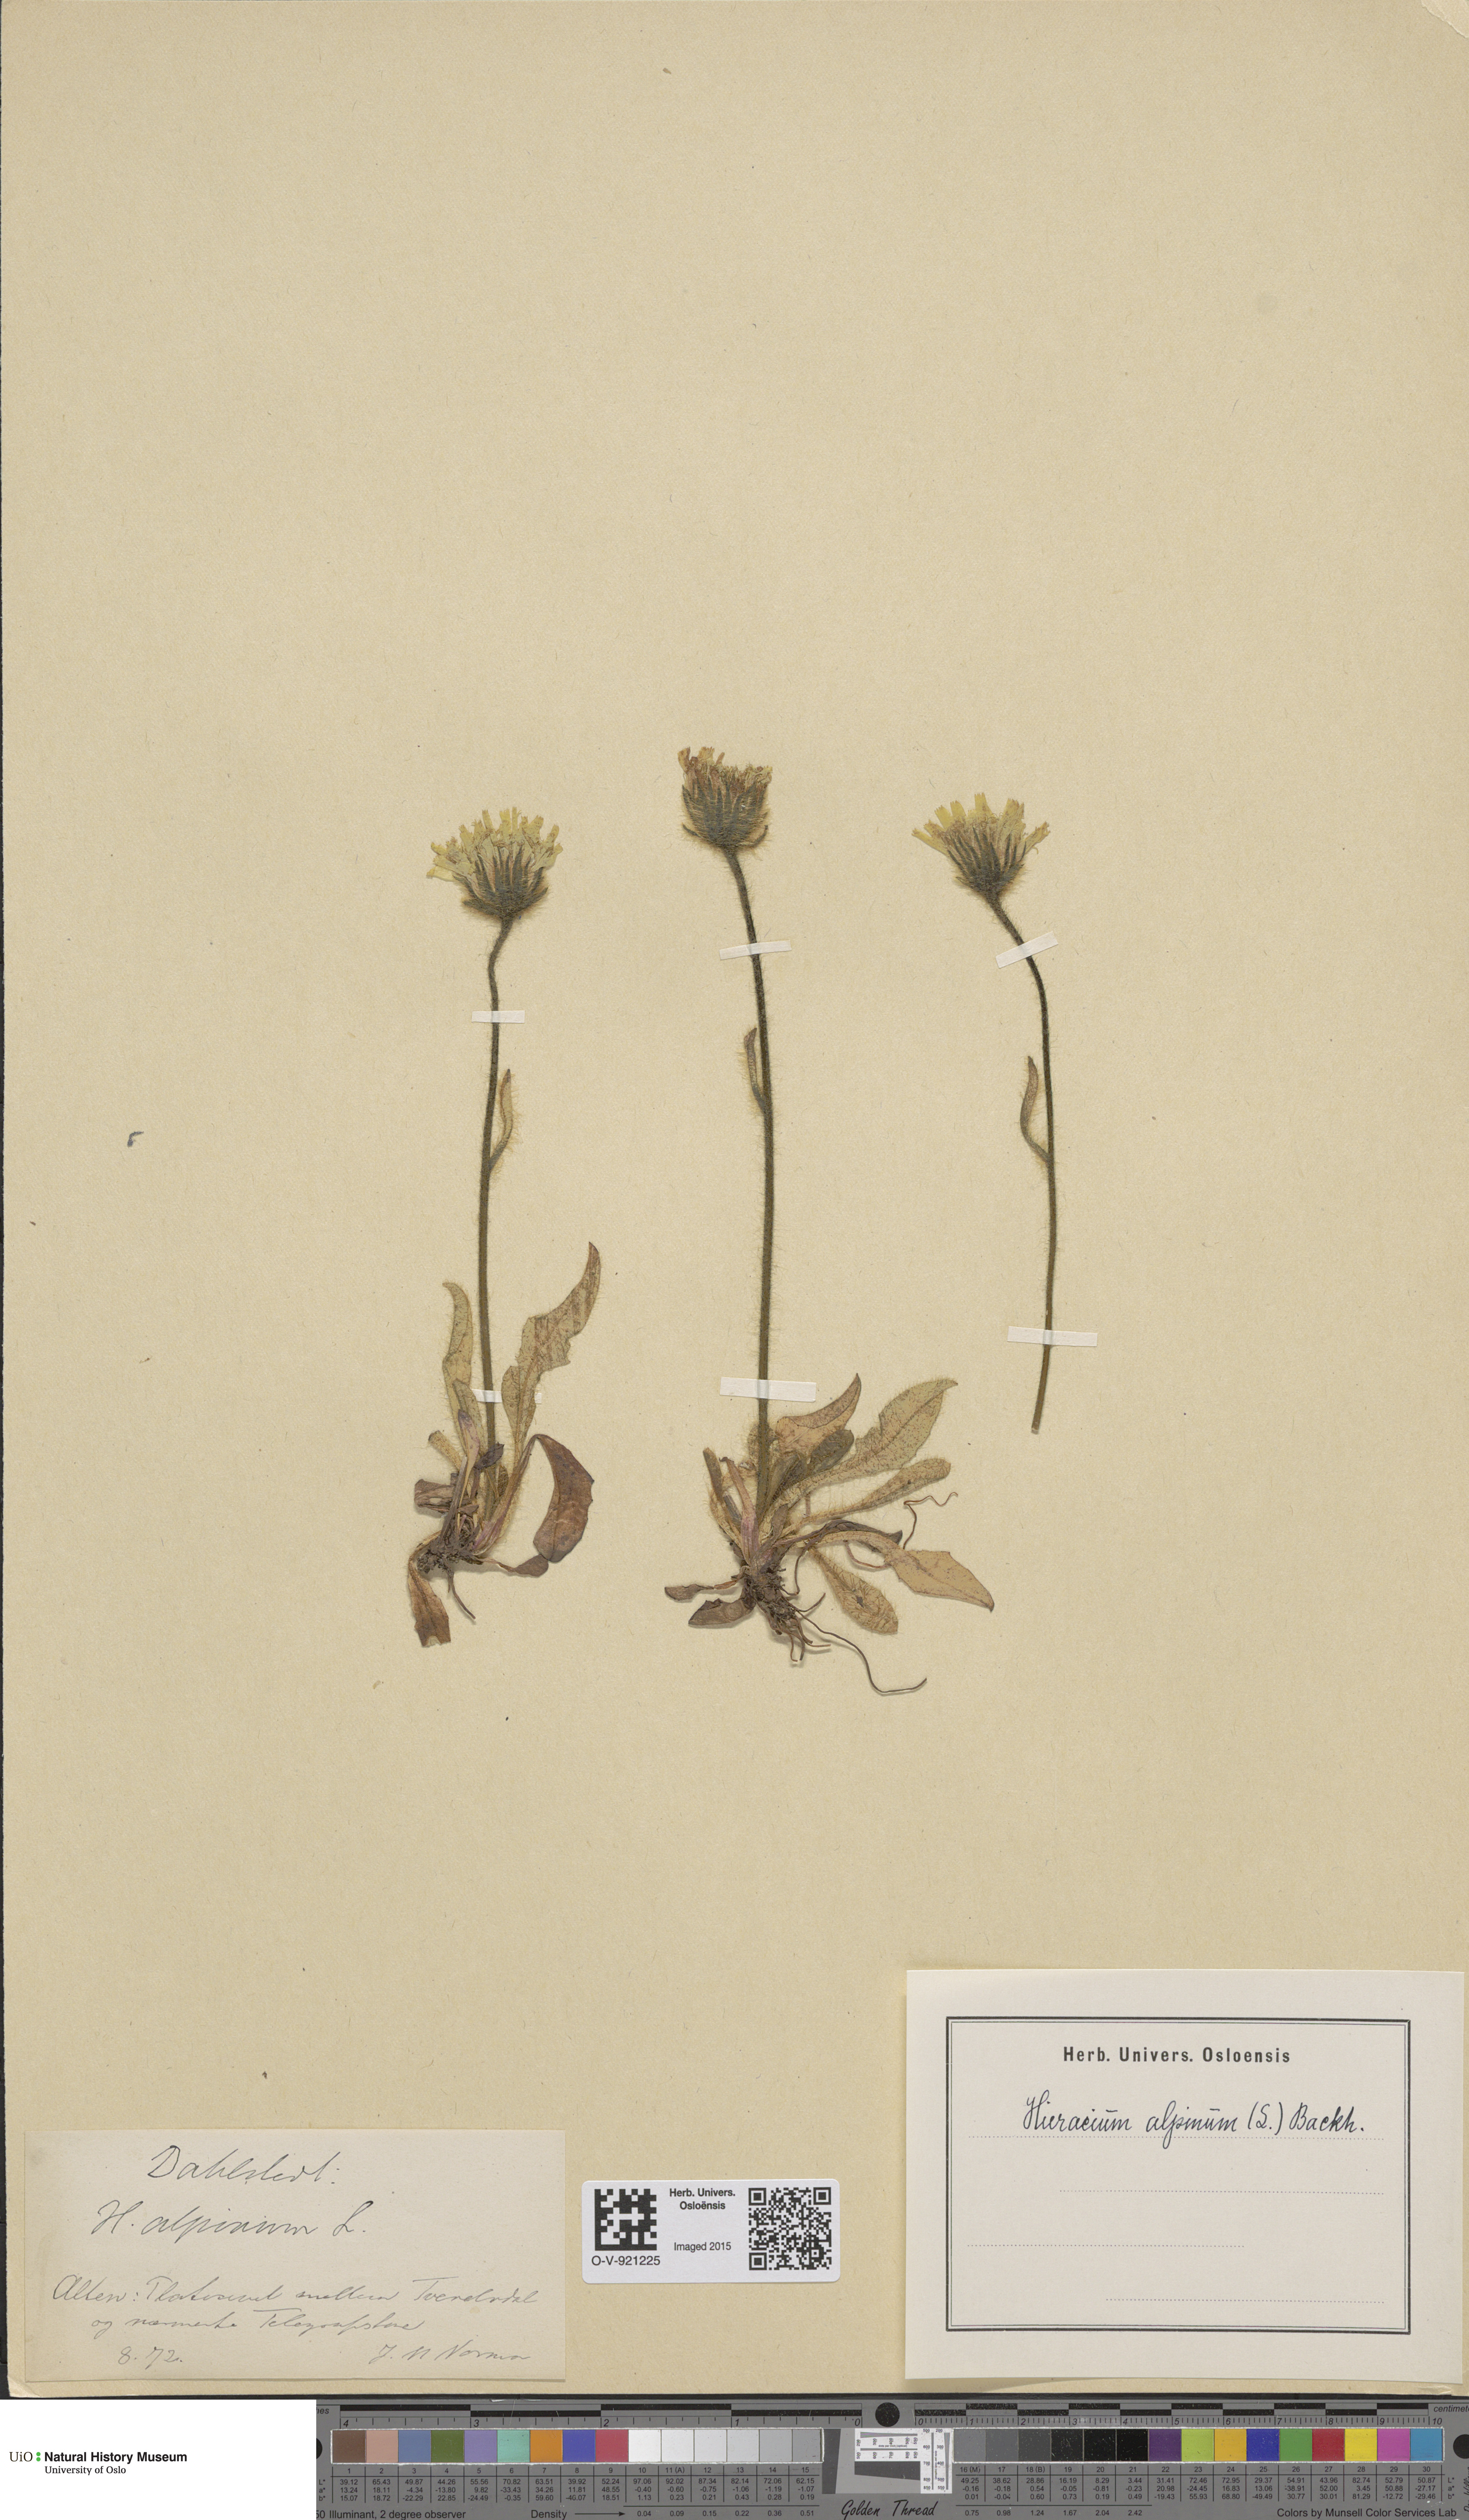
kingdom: Plantae
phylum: Tracheophyta
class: Magnoliopsida
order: Asterales
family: Asteraceae
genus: Hieracium
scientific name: Hieracium alpinum
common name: Alpine hawkweed
